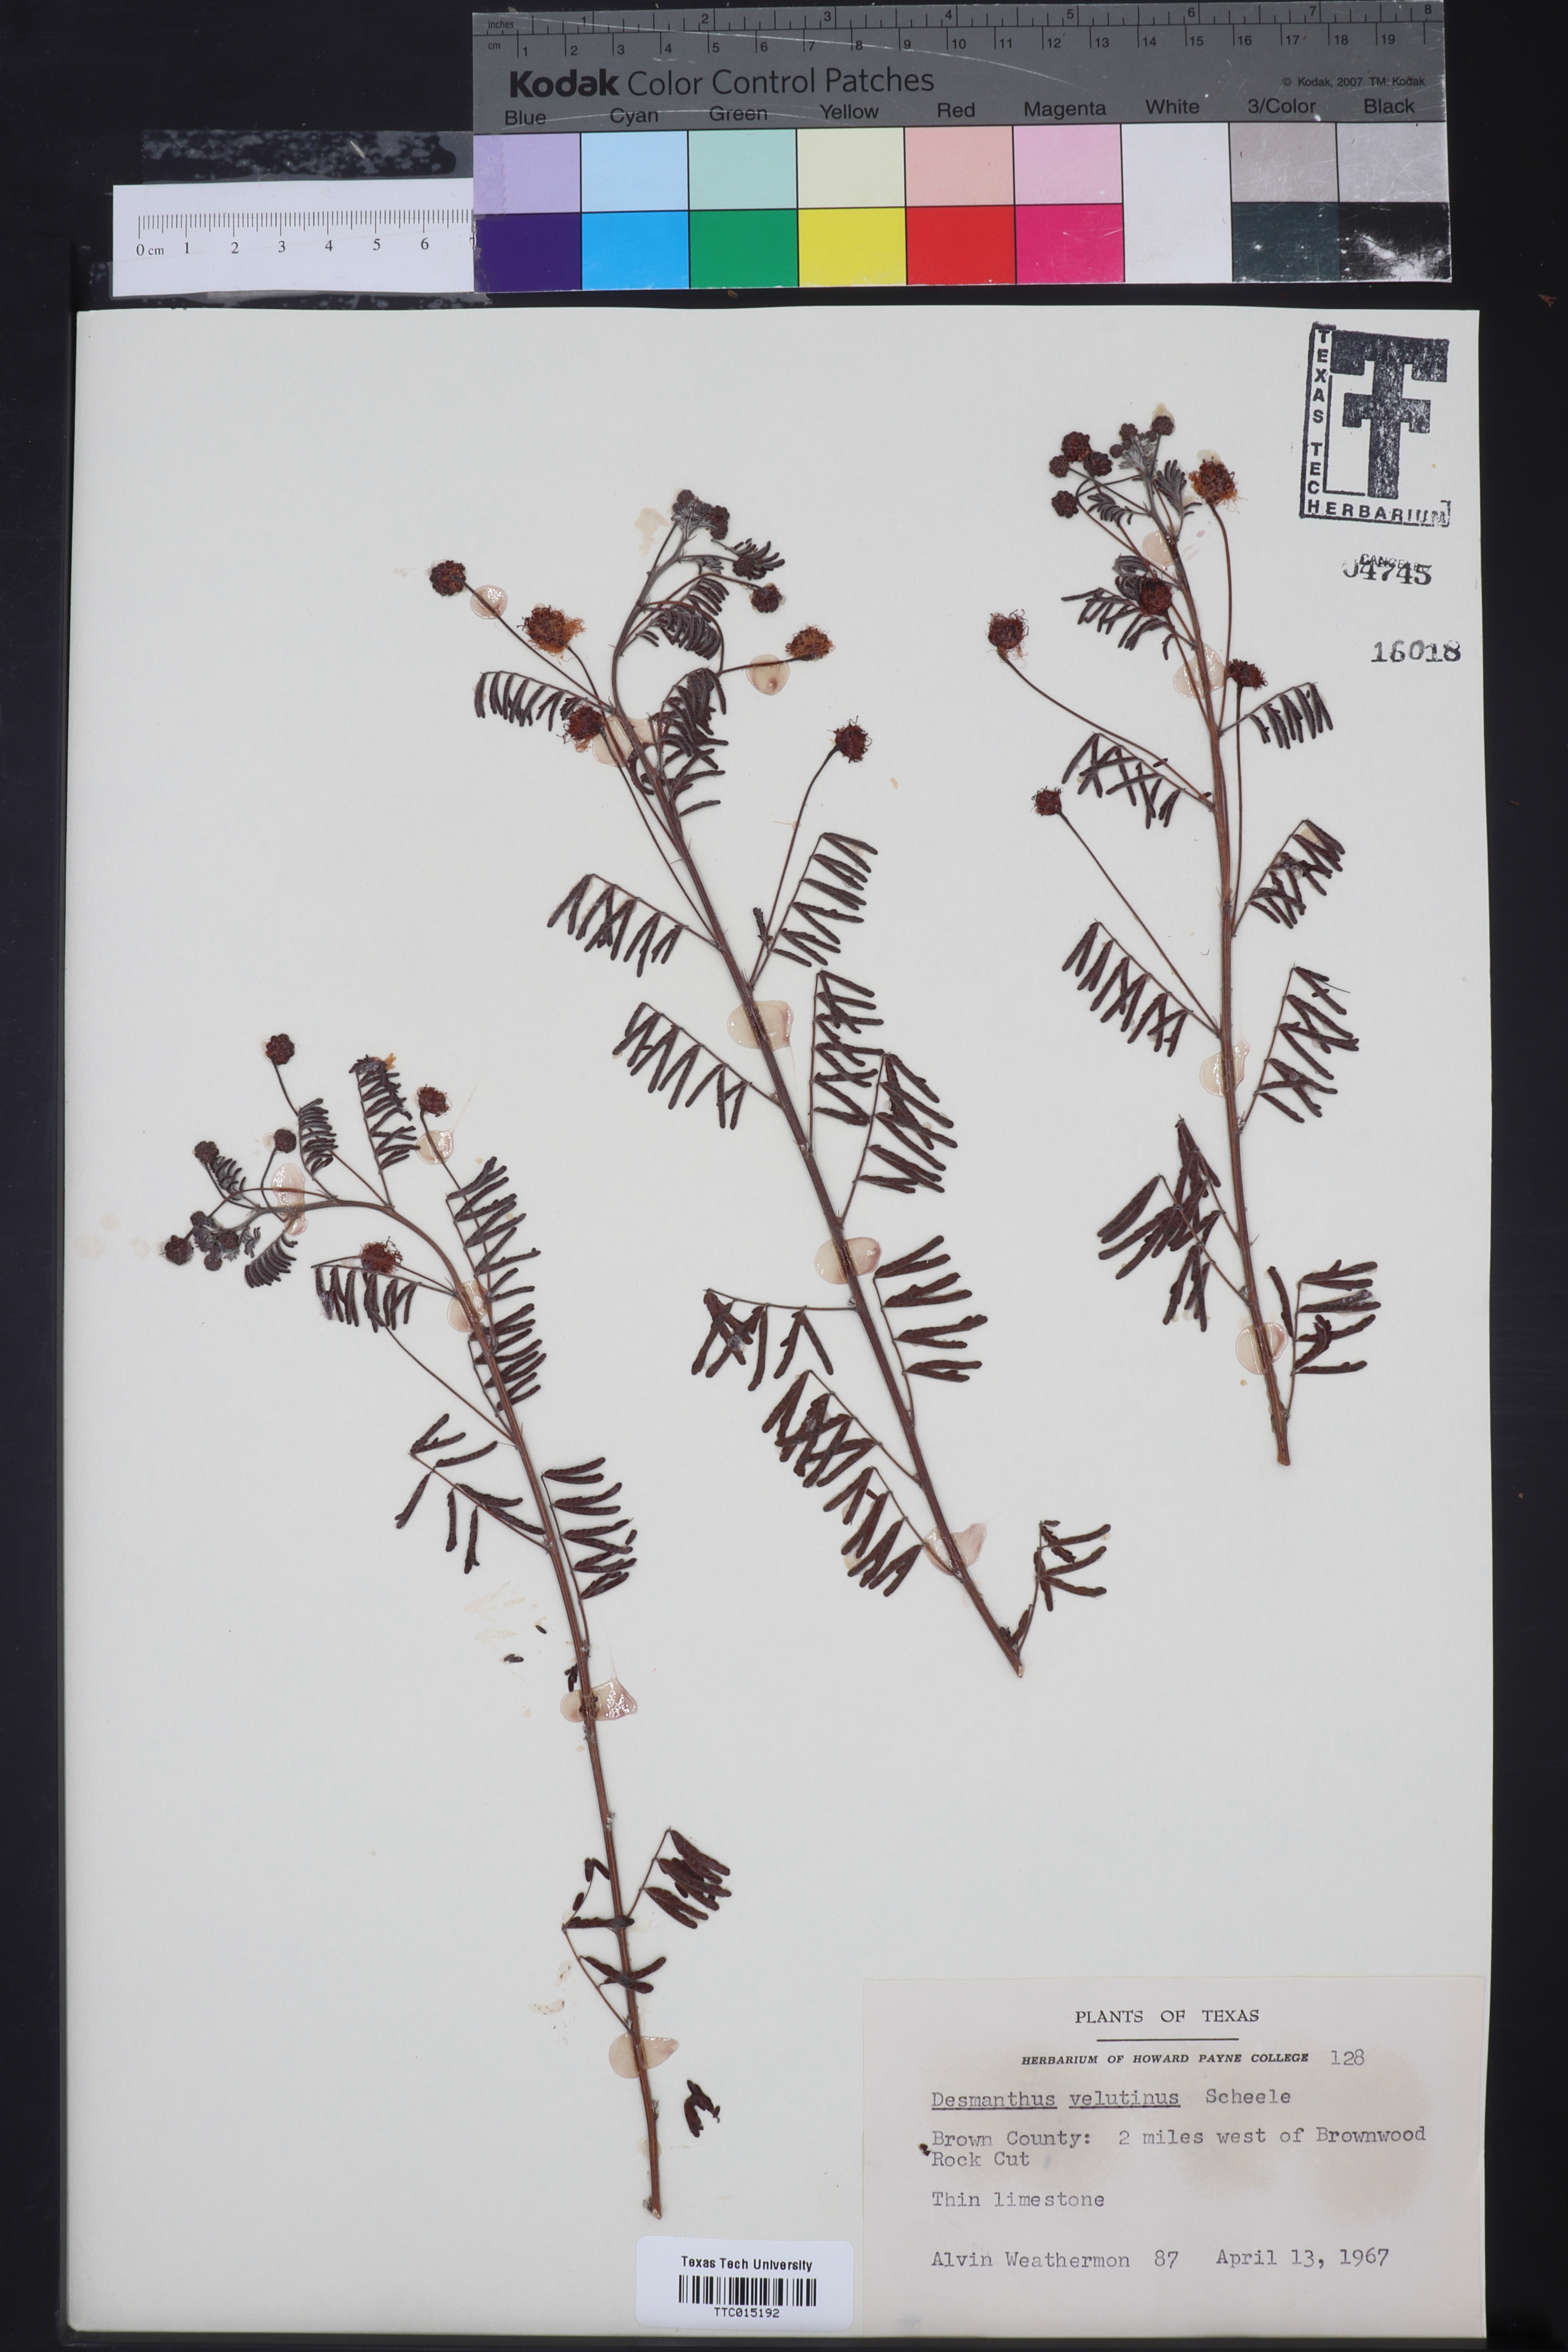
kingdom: Plantae
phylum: Tracheophyta
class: Magnoliopsida
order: Fabales
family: Fabaceae
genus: Desmanthus
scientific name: Desmanthus velutinus
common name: Velvet bundle-flower
